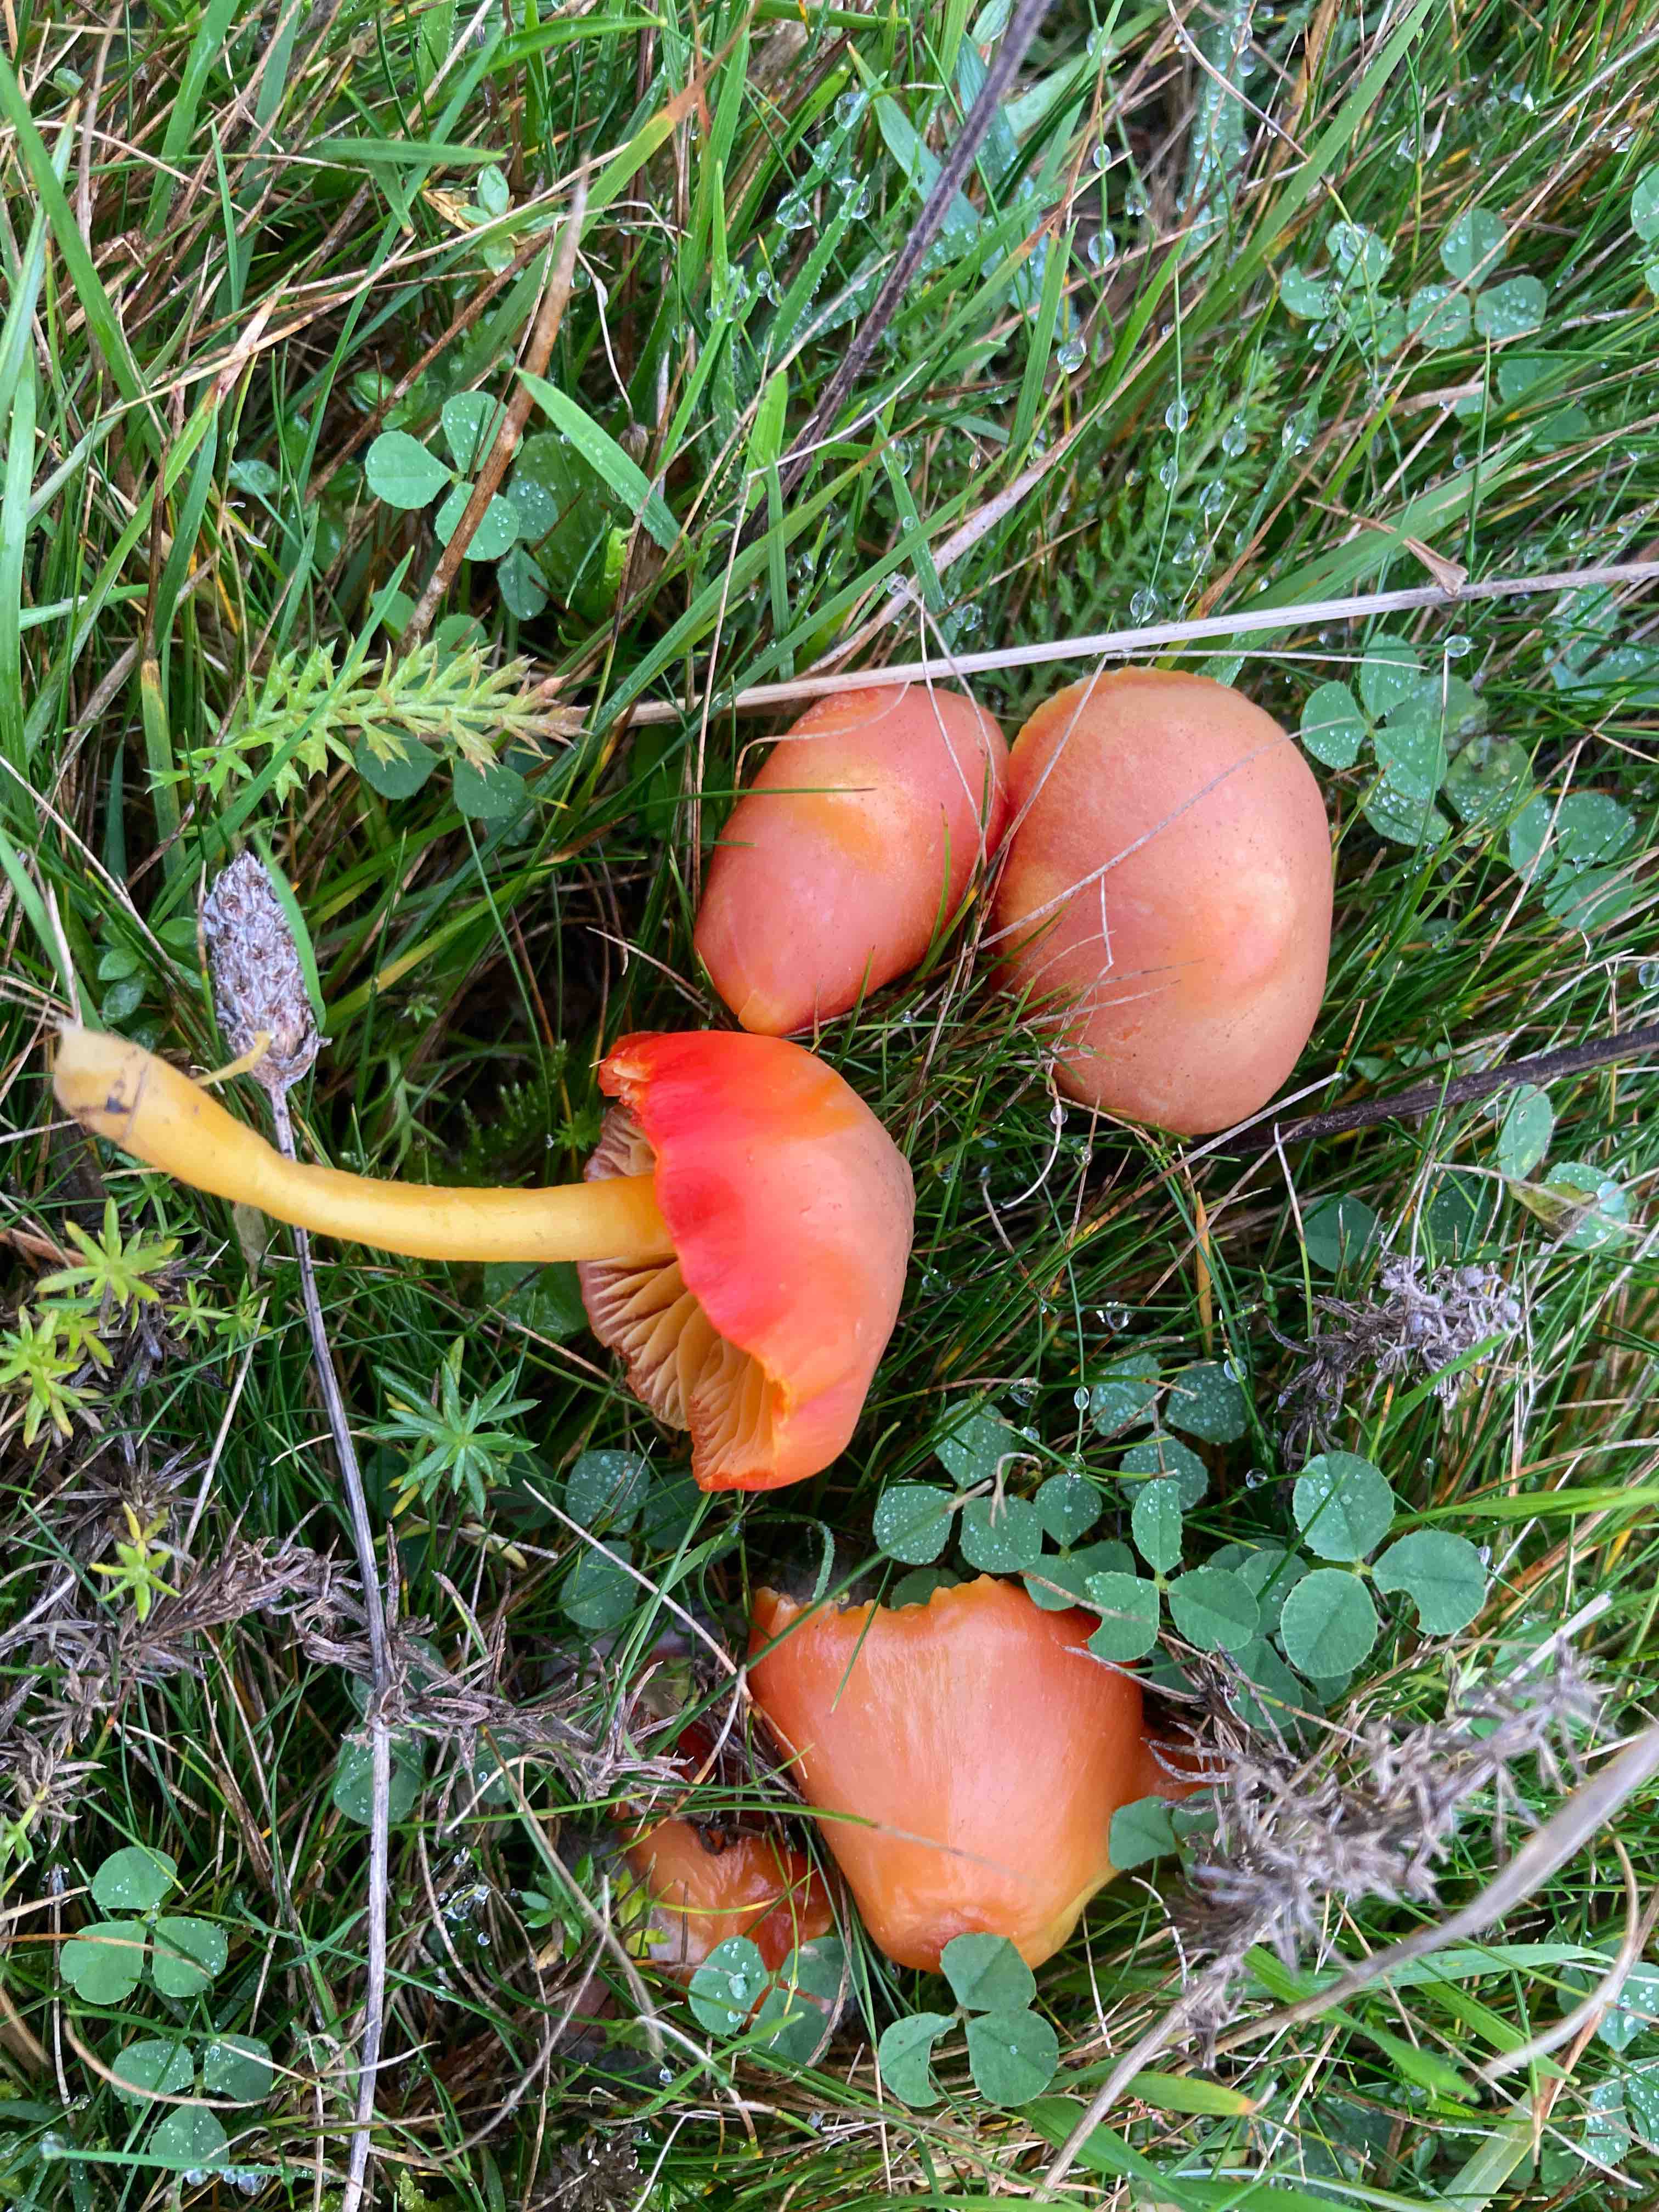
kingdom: Fungi
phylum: Basidiomycota
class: Agaricomycetes
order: Agaricales
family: Hygrophoraceae
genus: Hygrocybe
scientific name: Hygrocybe reidii
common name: honning-vokshat
